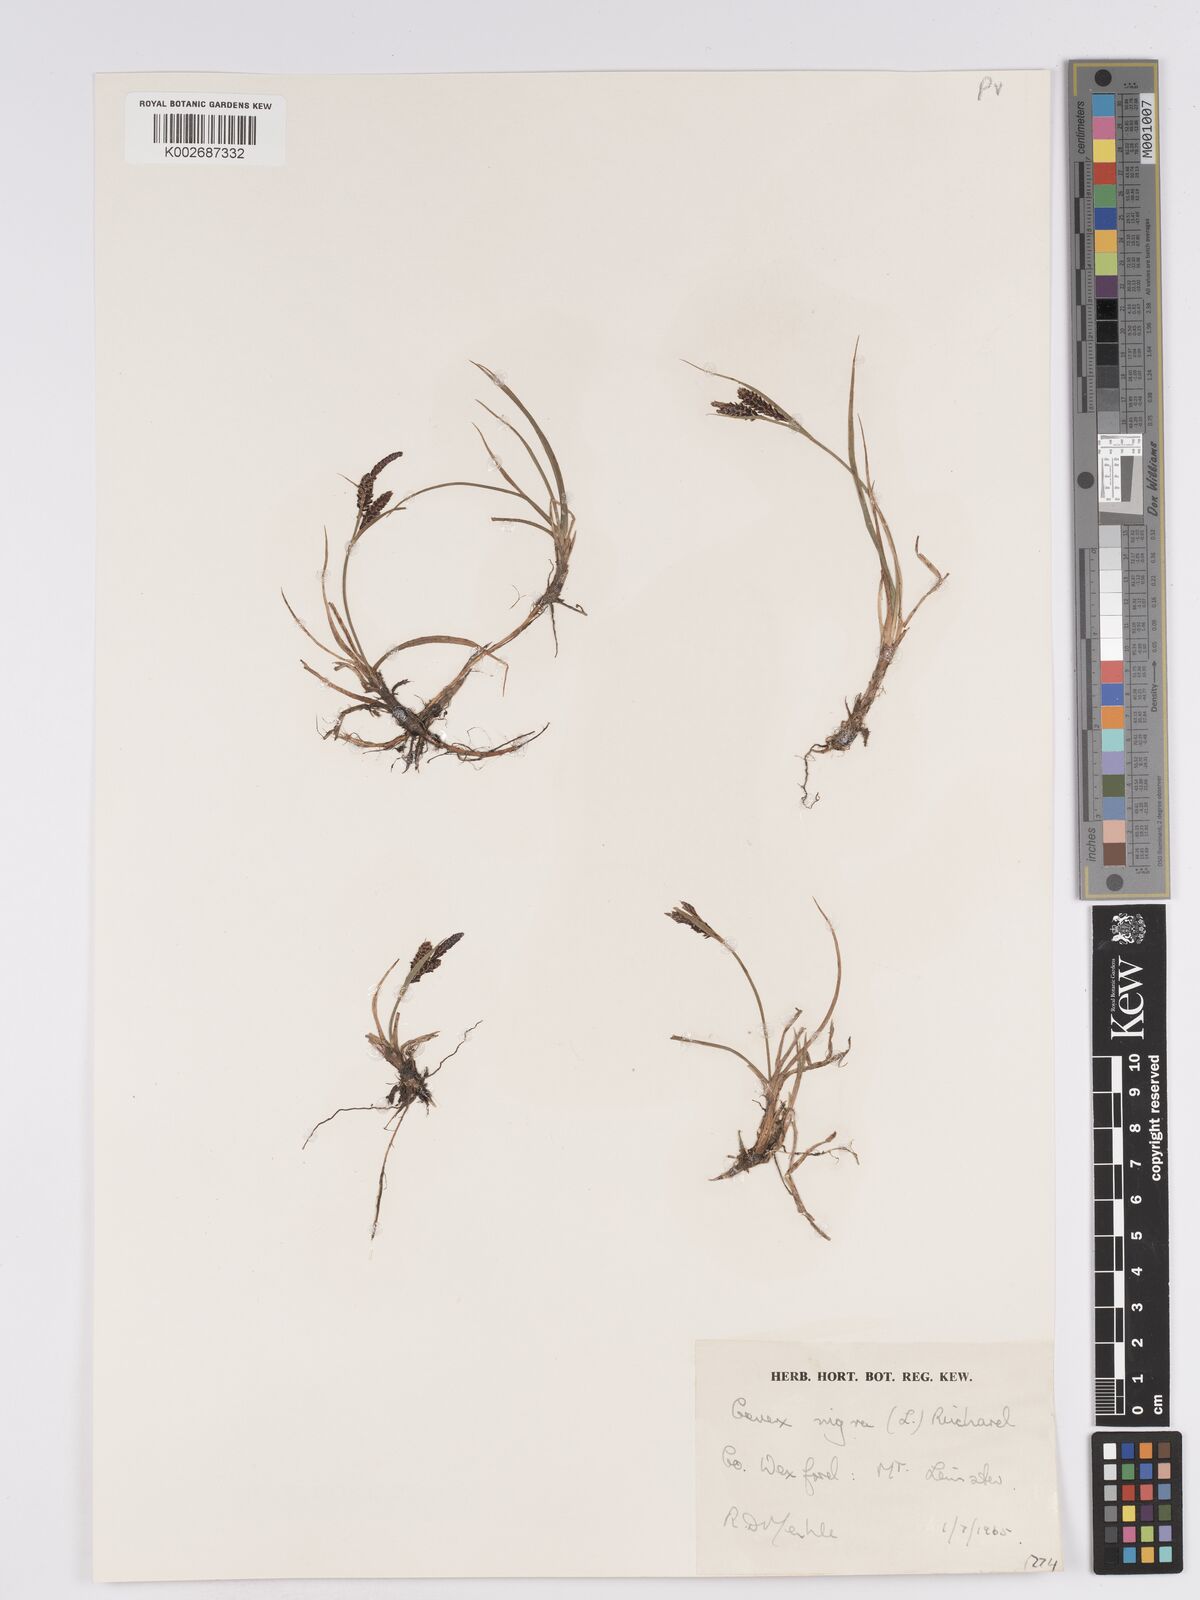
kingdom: Plantae
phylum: Tracheophyta
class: Liliopsida
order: Poales
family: Cyperaceae
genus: Carex
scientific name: Carex nigra
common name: Common sedge
